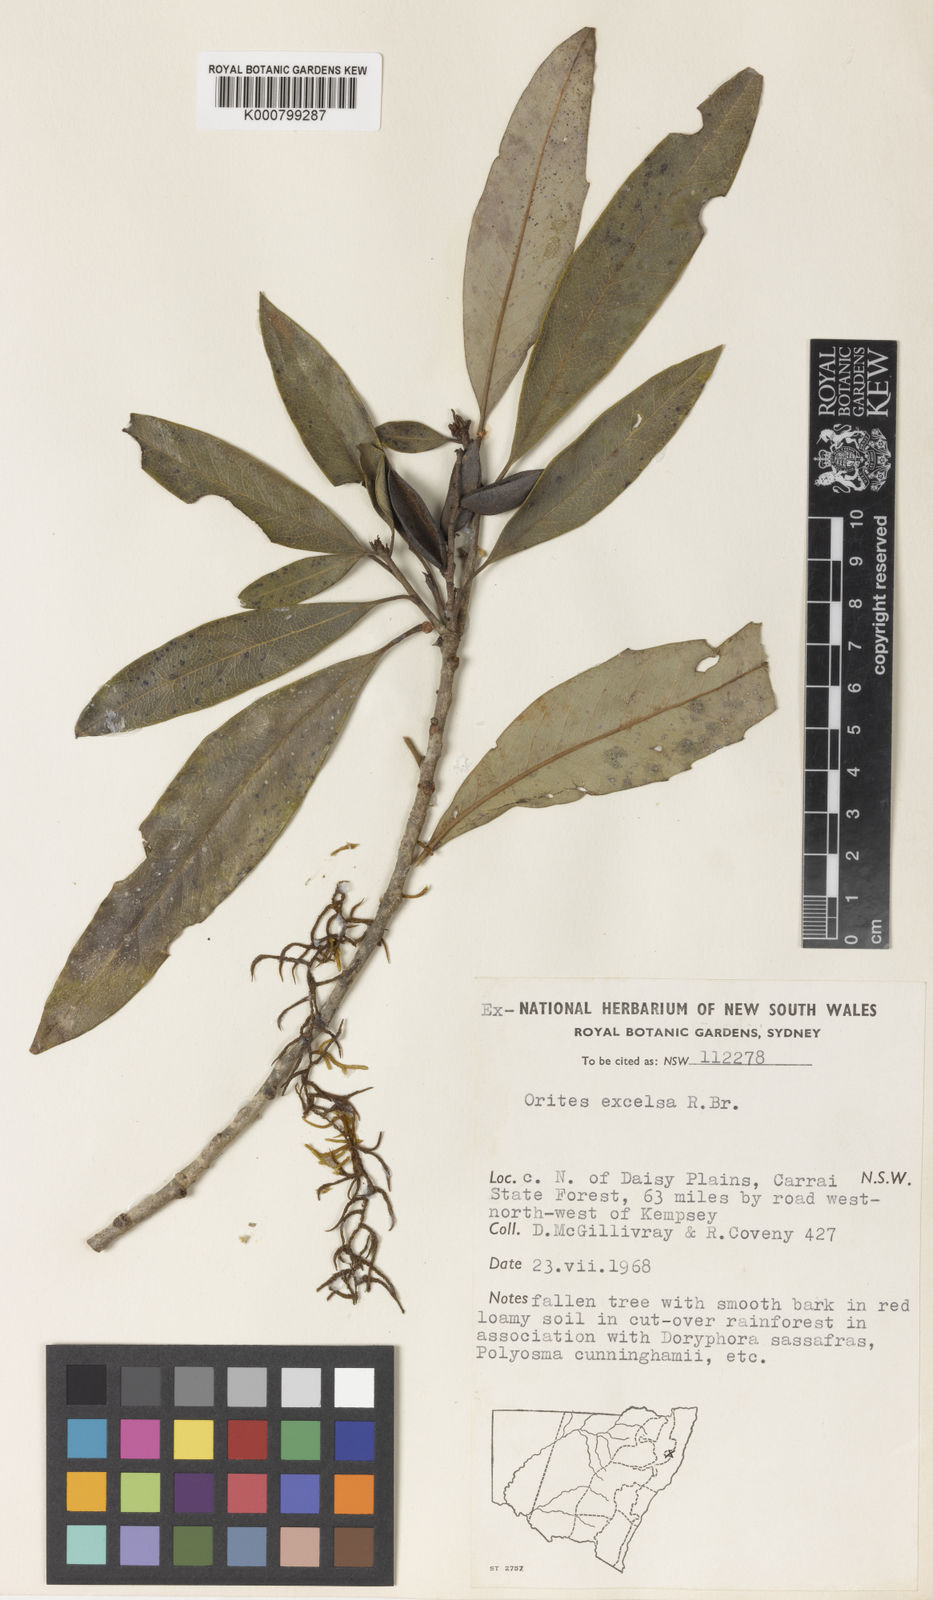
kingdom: Plantae
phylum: Tracheophyta
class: Magnoliopsida
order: Proteales
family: Proteaceae
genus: Orites
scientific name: Orites excelsus
